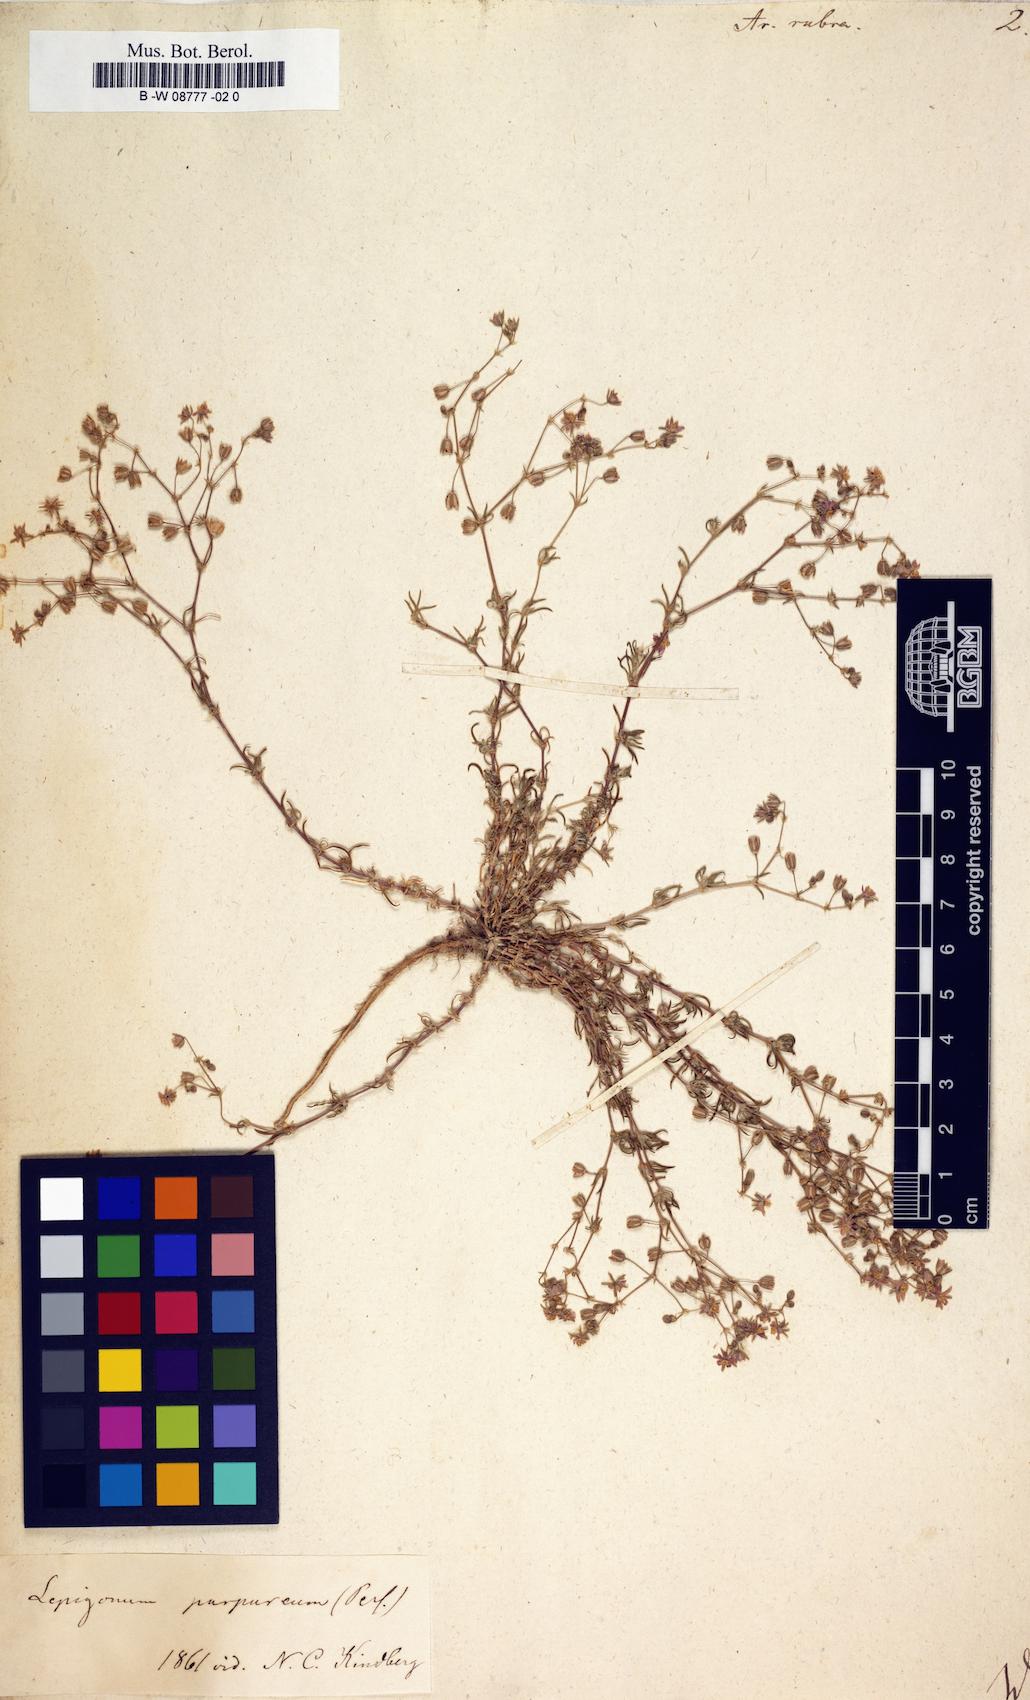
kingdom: Plantae
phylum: Tracheophyta
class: Magnoliopsida
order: Caryophyllales
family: Caryophyllaceae
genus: Spergularia
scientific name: Spergularia rubra
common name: Red sand-spurrey
